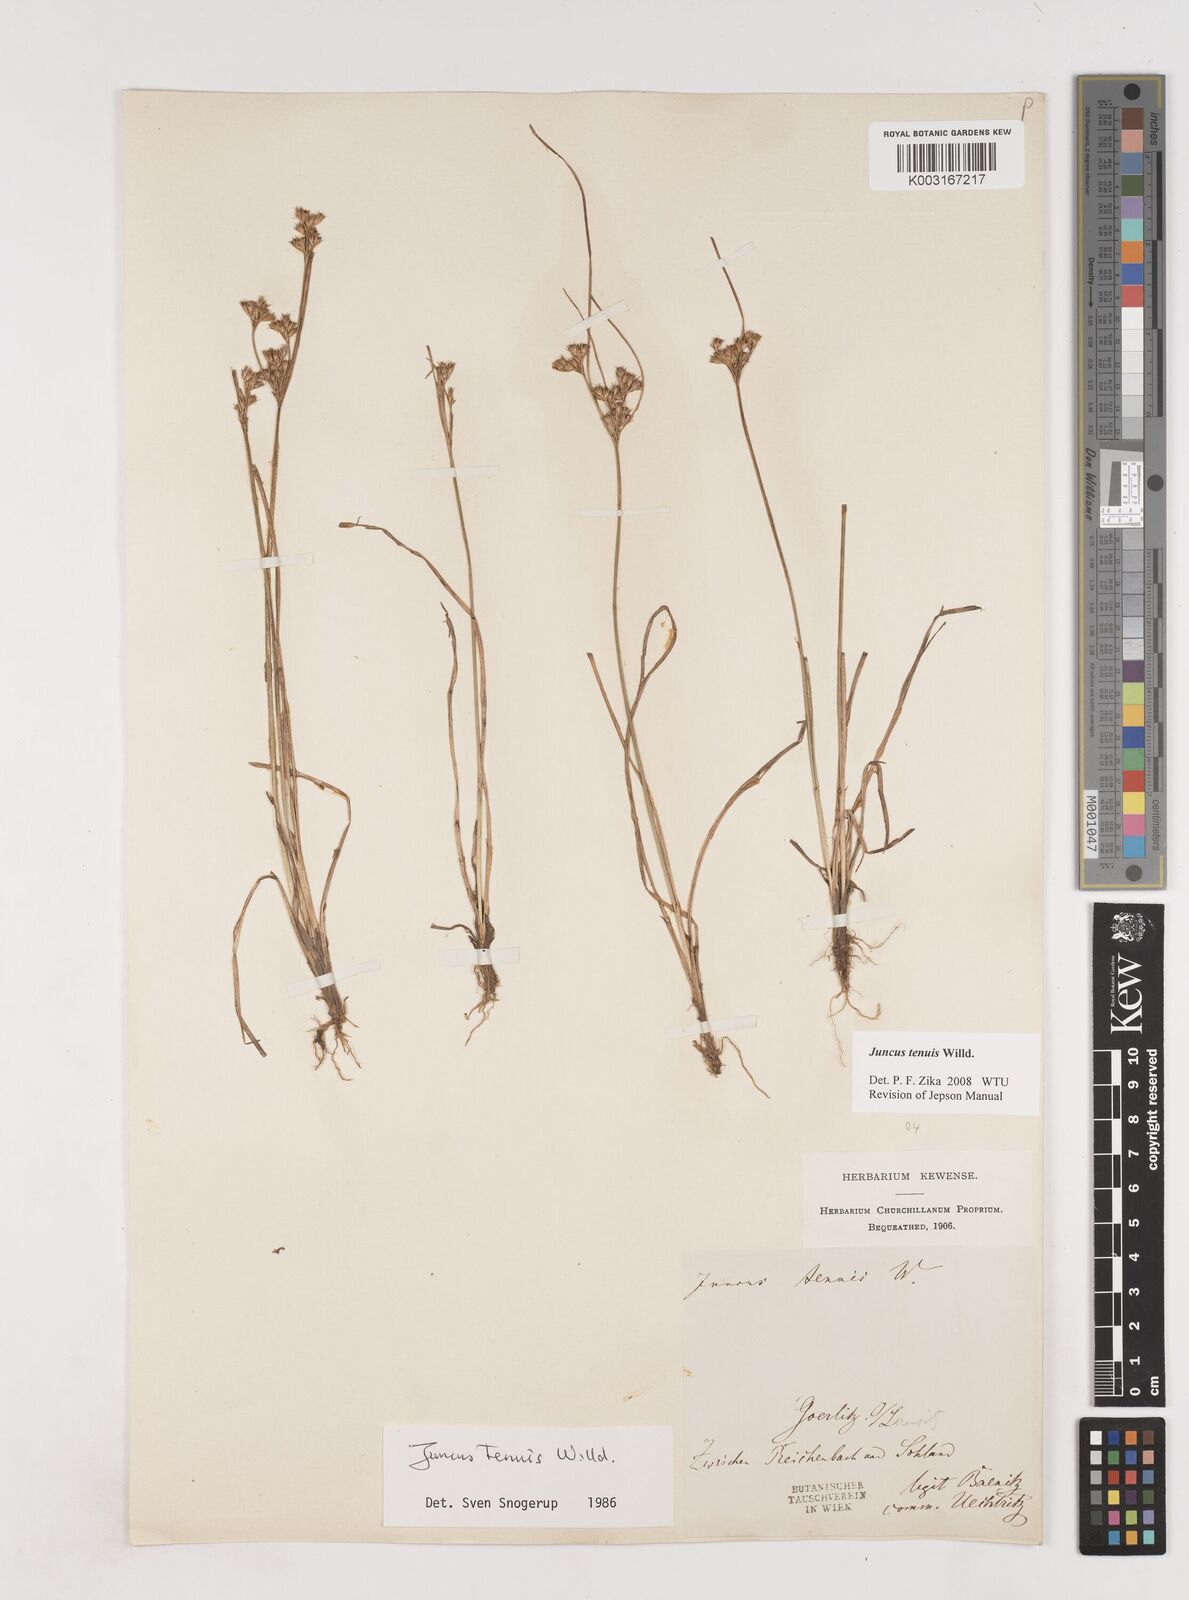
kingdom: Plantae
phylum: Tracheophyta
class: Liliopsida
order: Poales
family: Juncaceae
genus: Juncus
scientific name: Juncus tenuis
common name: Slender rush
